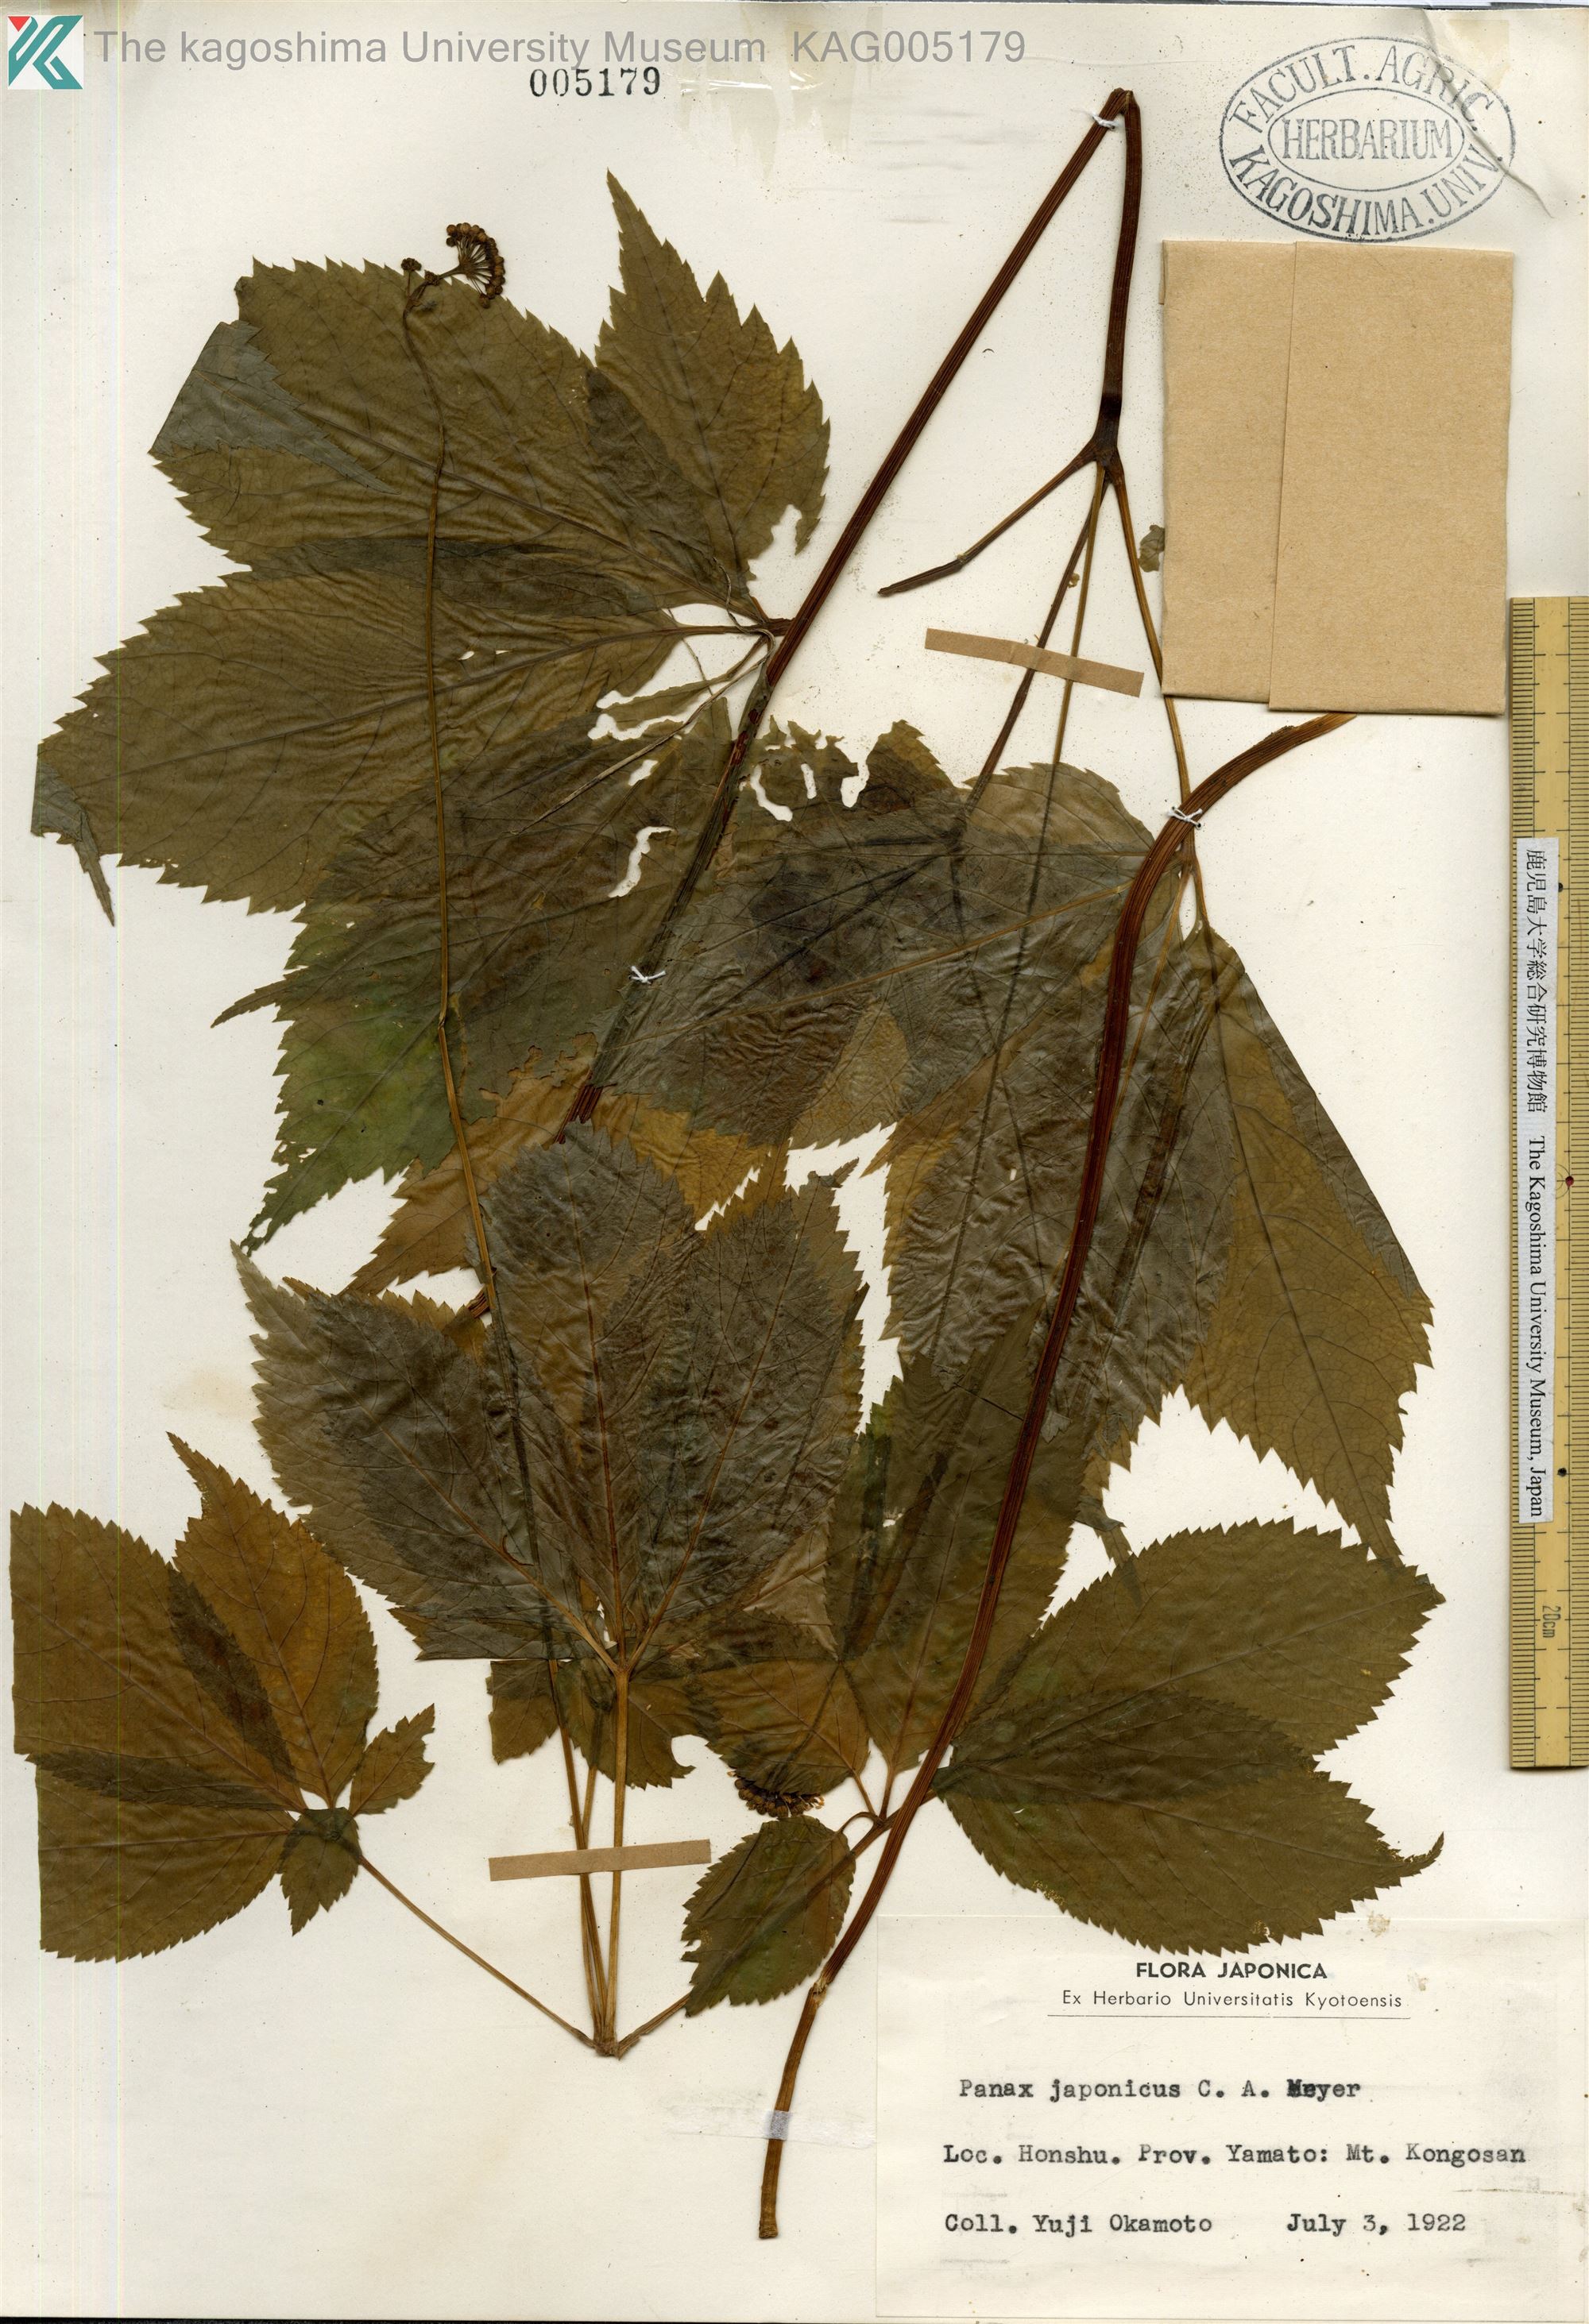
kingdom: Plantae
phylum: Tracheophyta
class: Magnoliopsida
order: Apiales
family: Araliaceae
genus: Panax
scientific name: Panax japonicus
